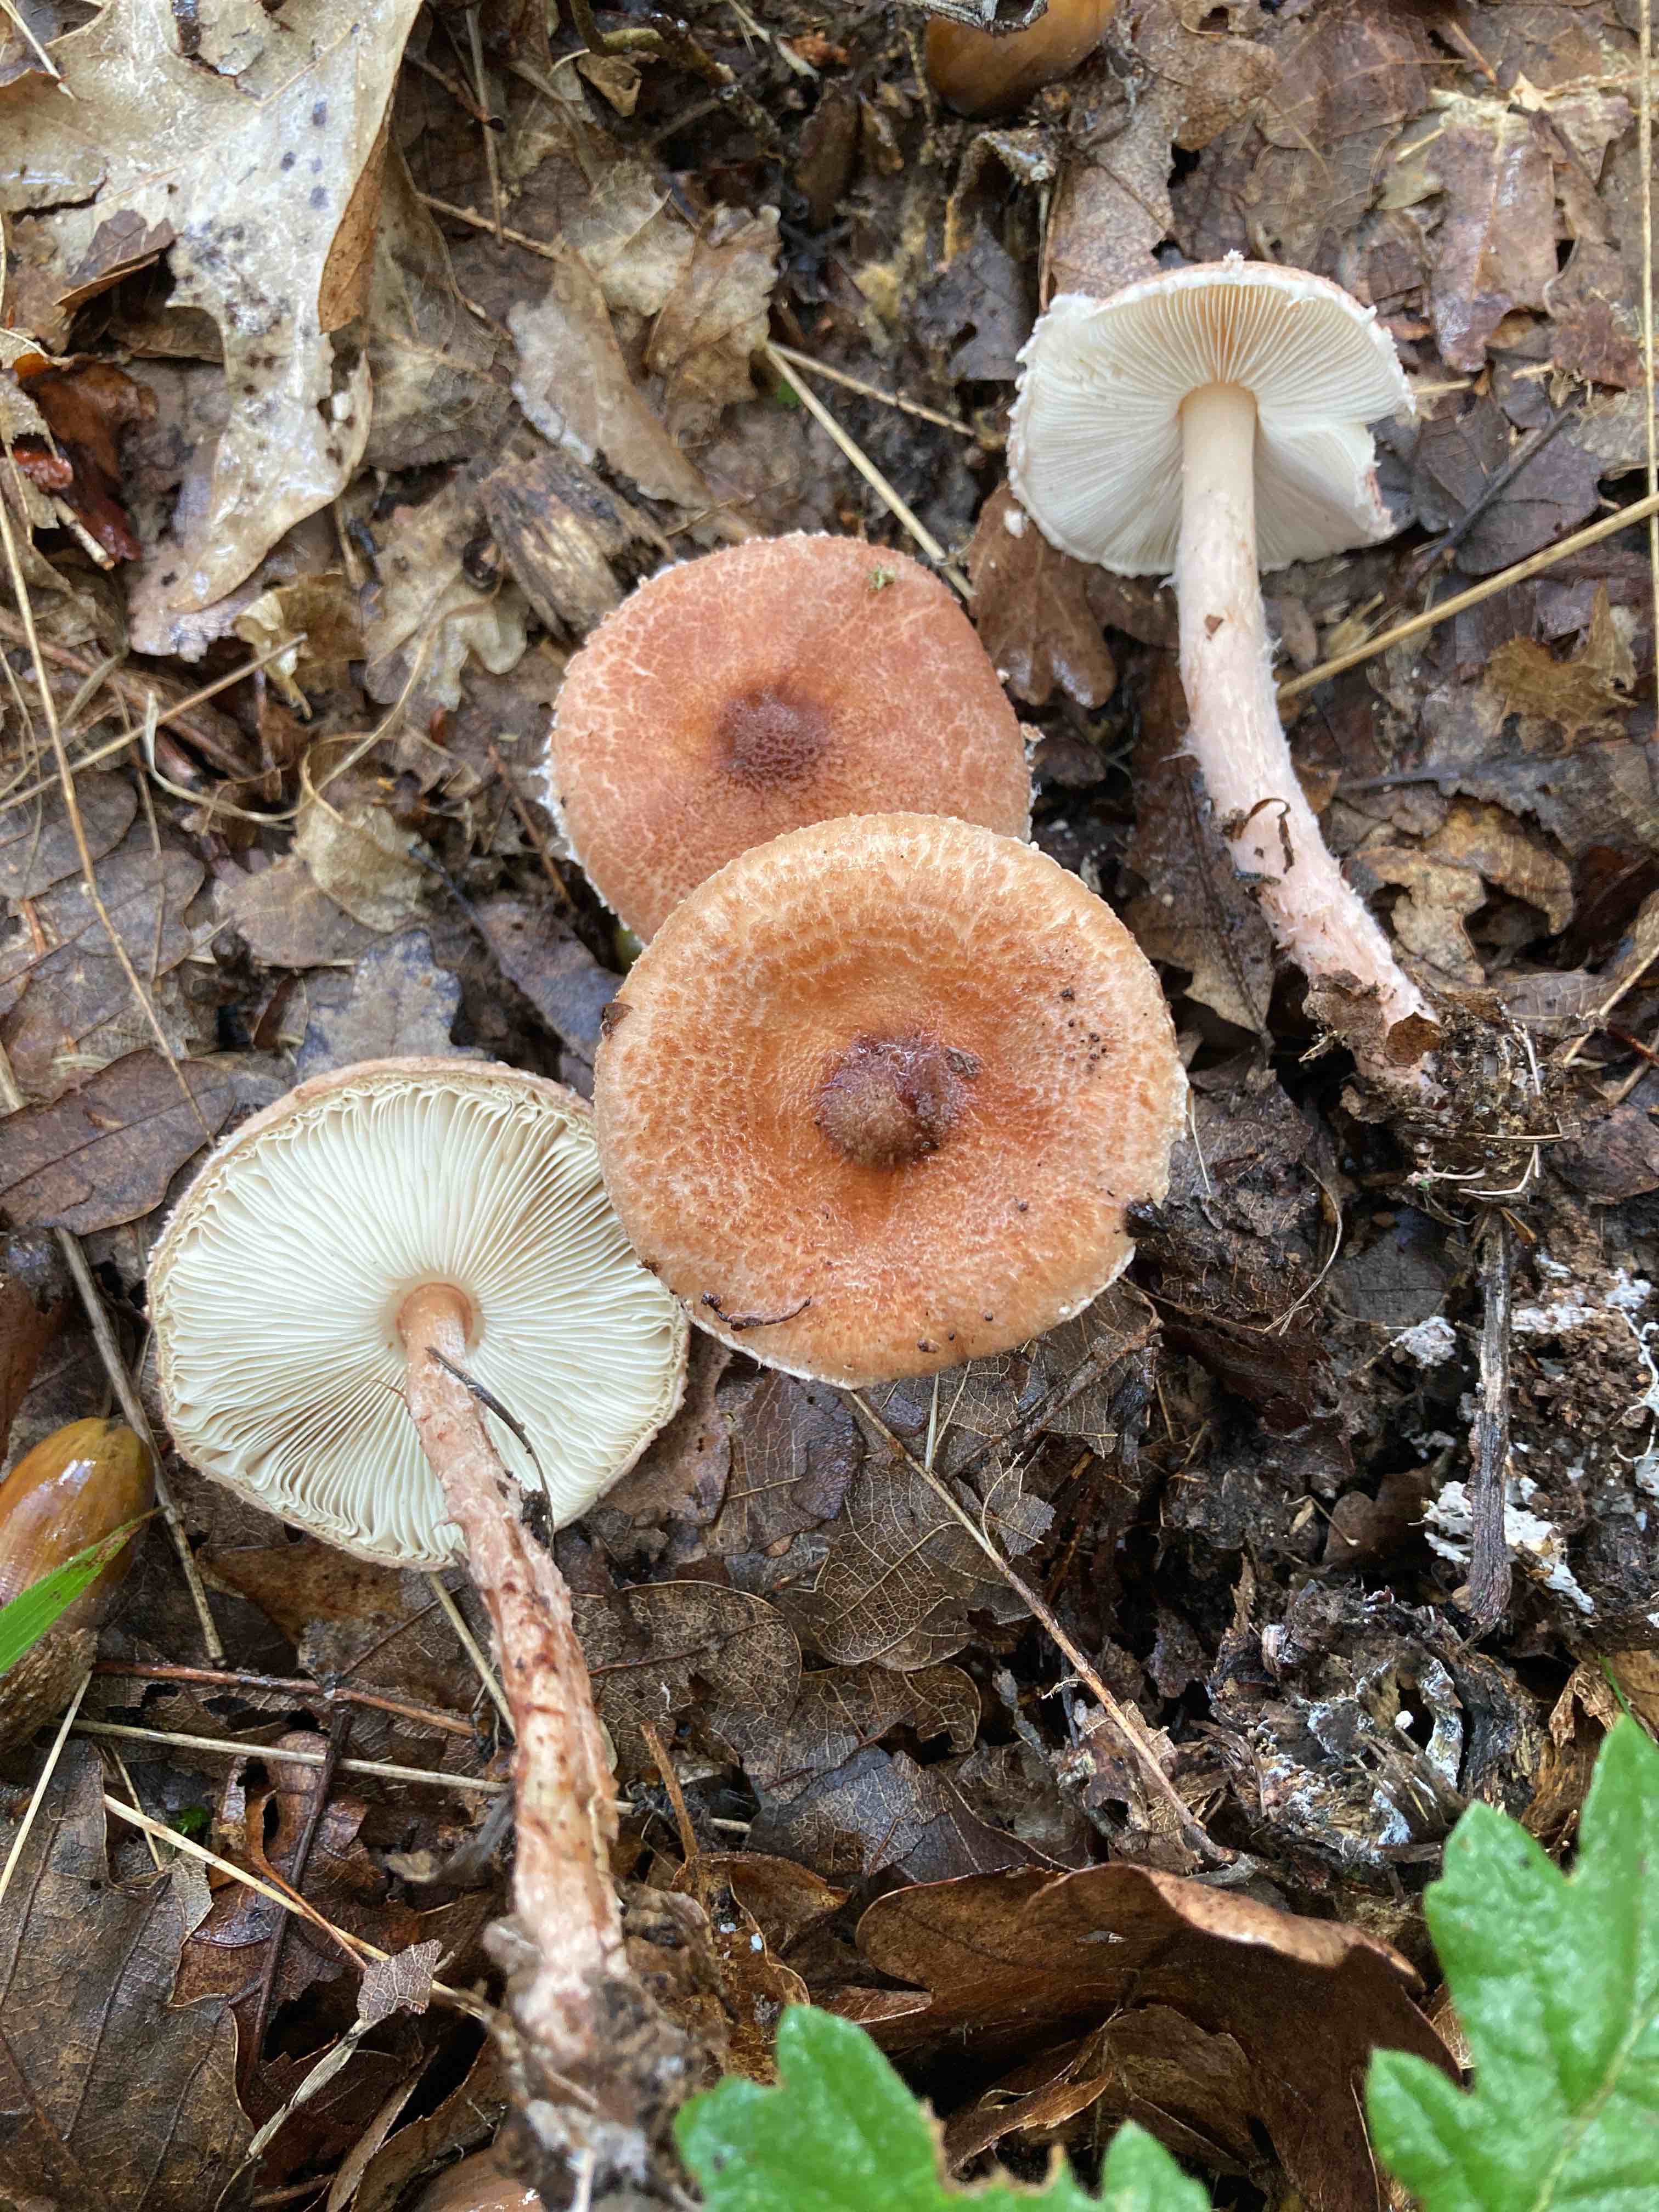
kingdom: Fungi
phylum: Basidiomycota
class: Agaricomycetes
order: Agaricales
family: Agaricaceae
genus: Lepiota
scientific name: Lepiota
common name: parasolhat
